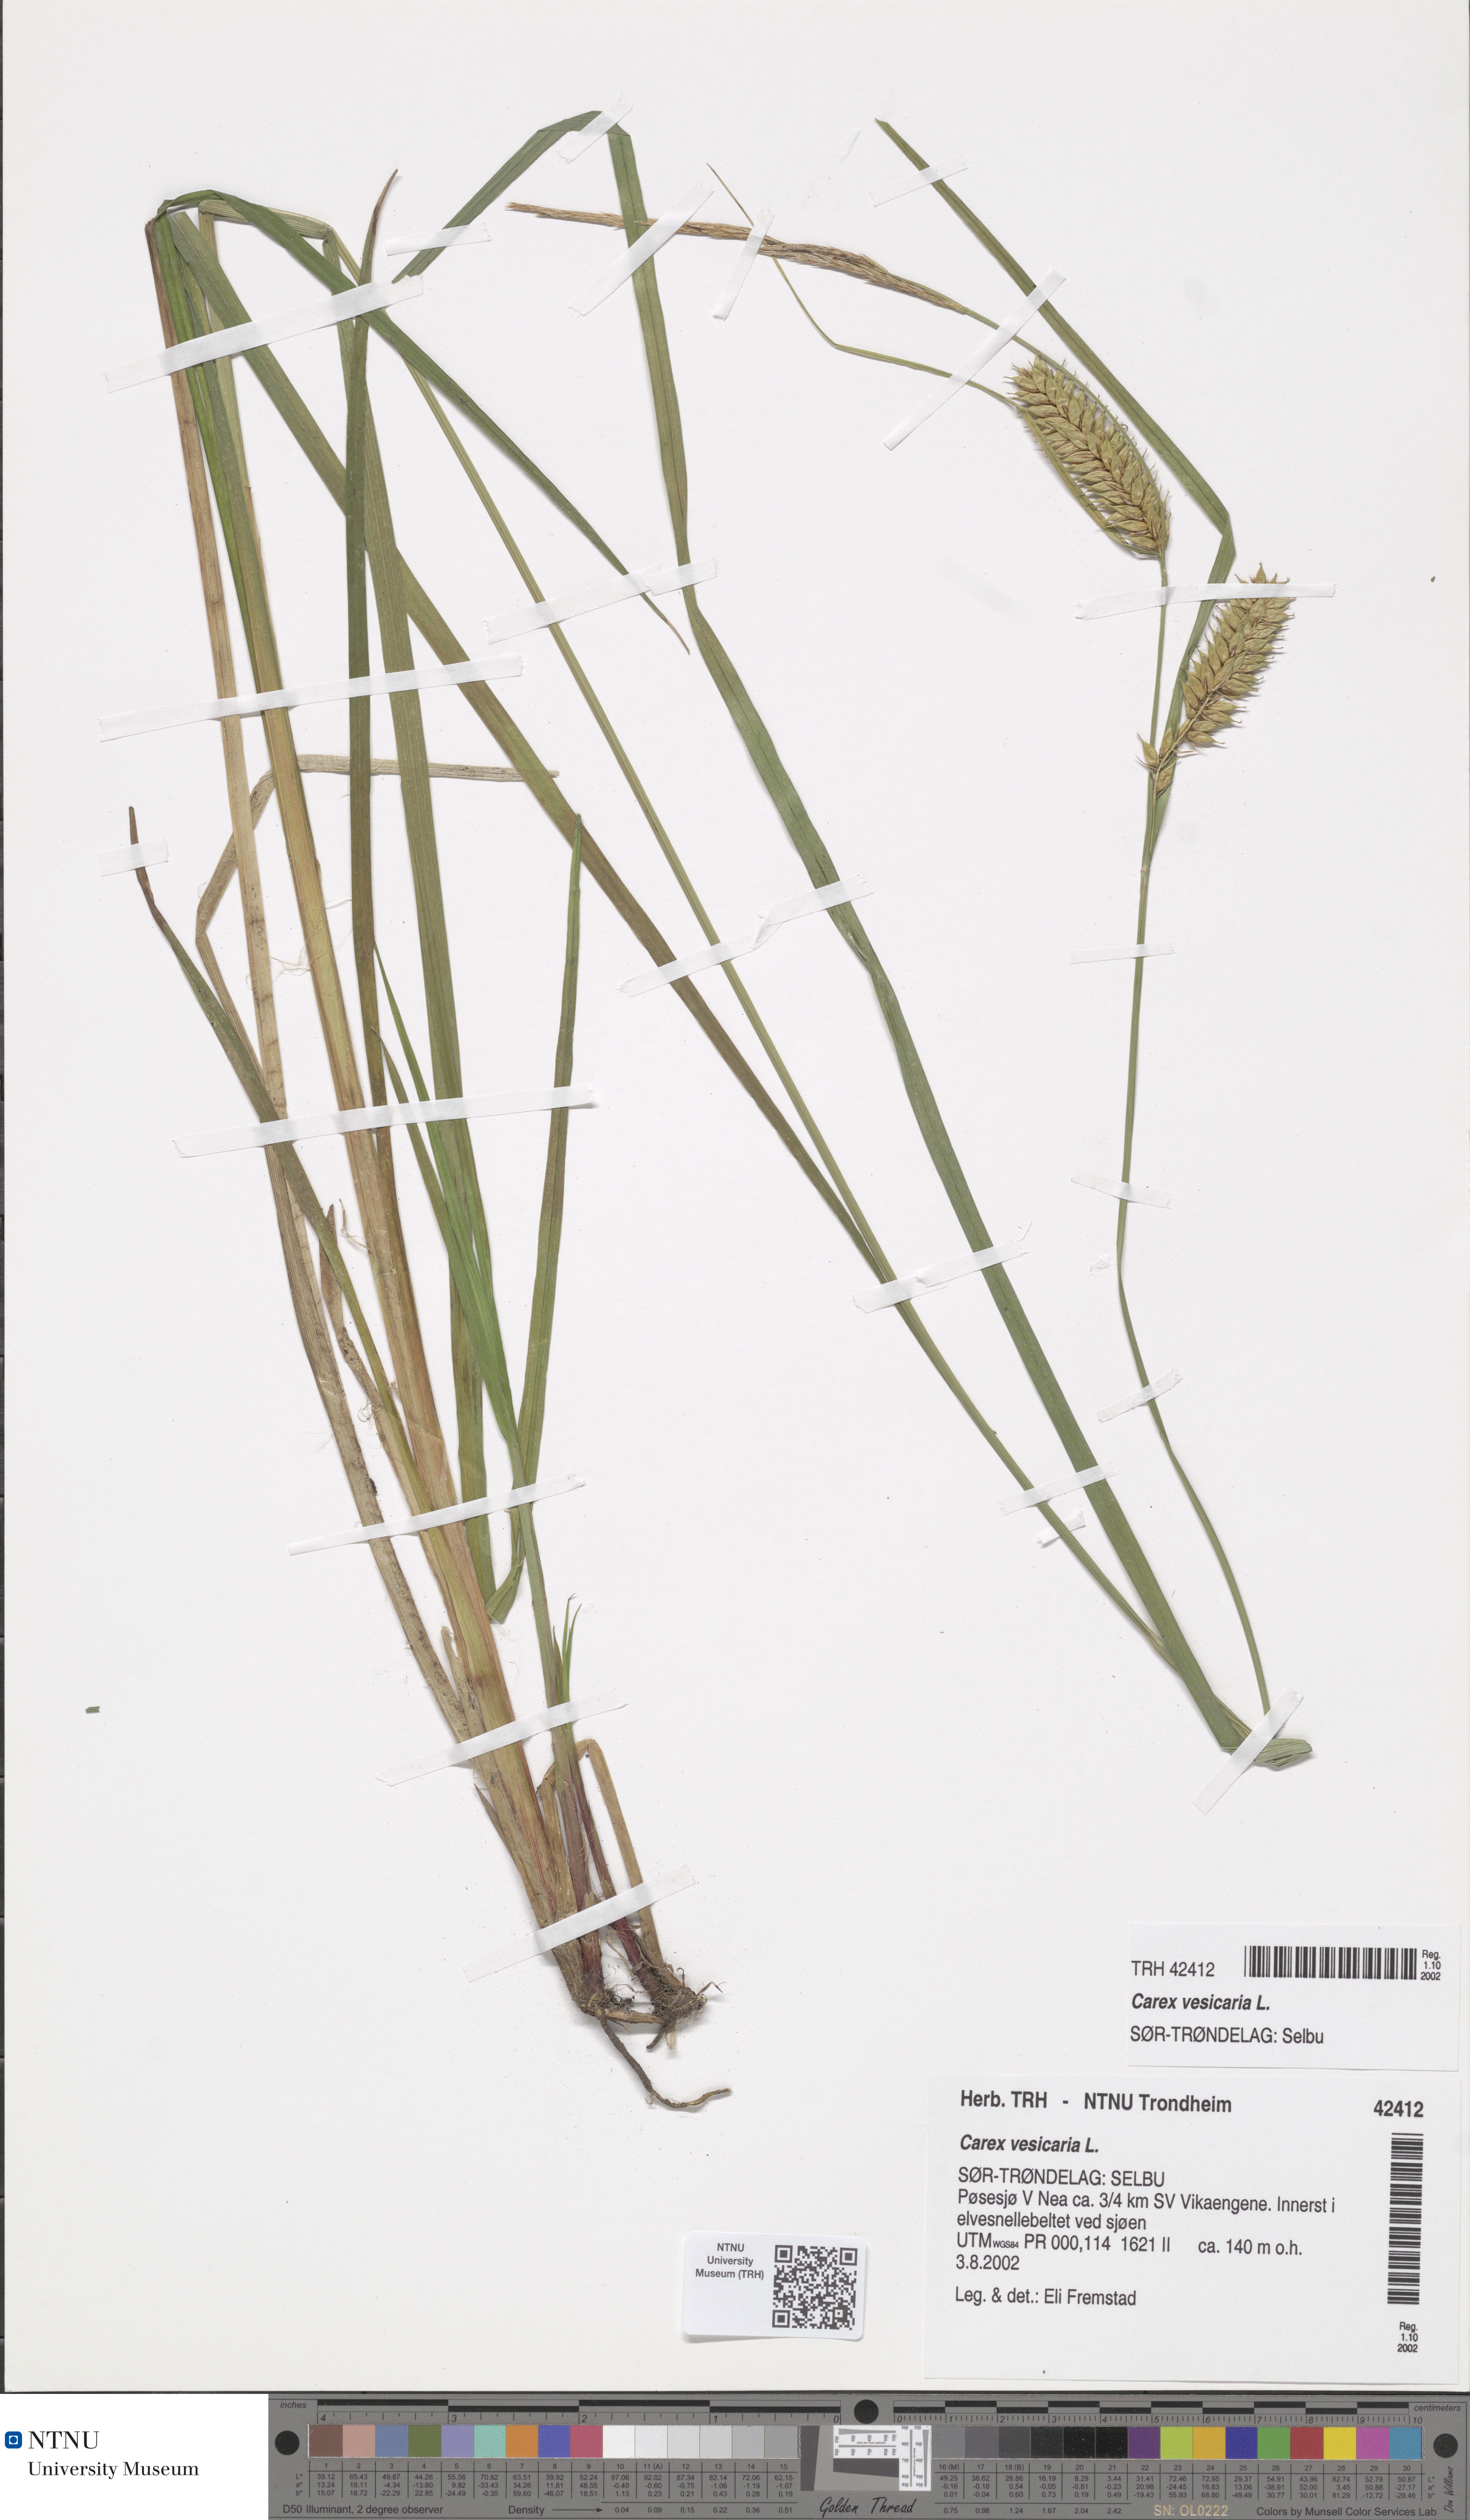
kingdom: Plantae
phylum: Tracheophyta
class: Liliopsida
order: Poales
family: Cyperaceae
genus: Carex
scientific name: Carex vesicaria
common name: Bladder-sedge
